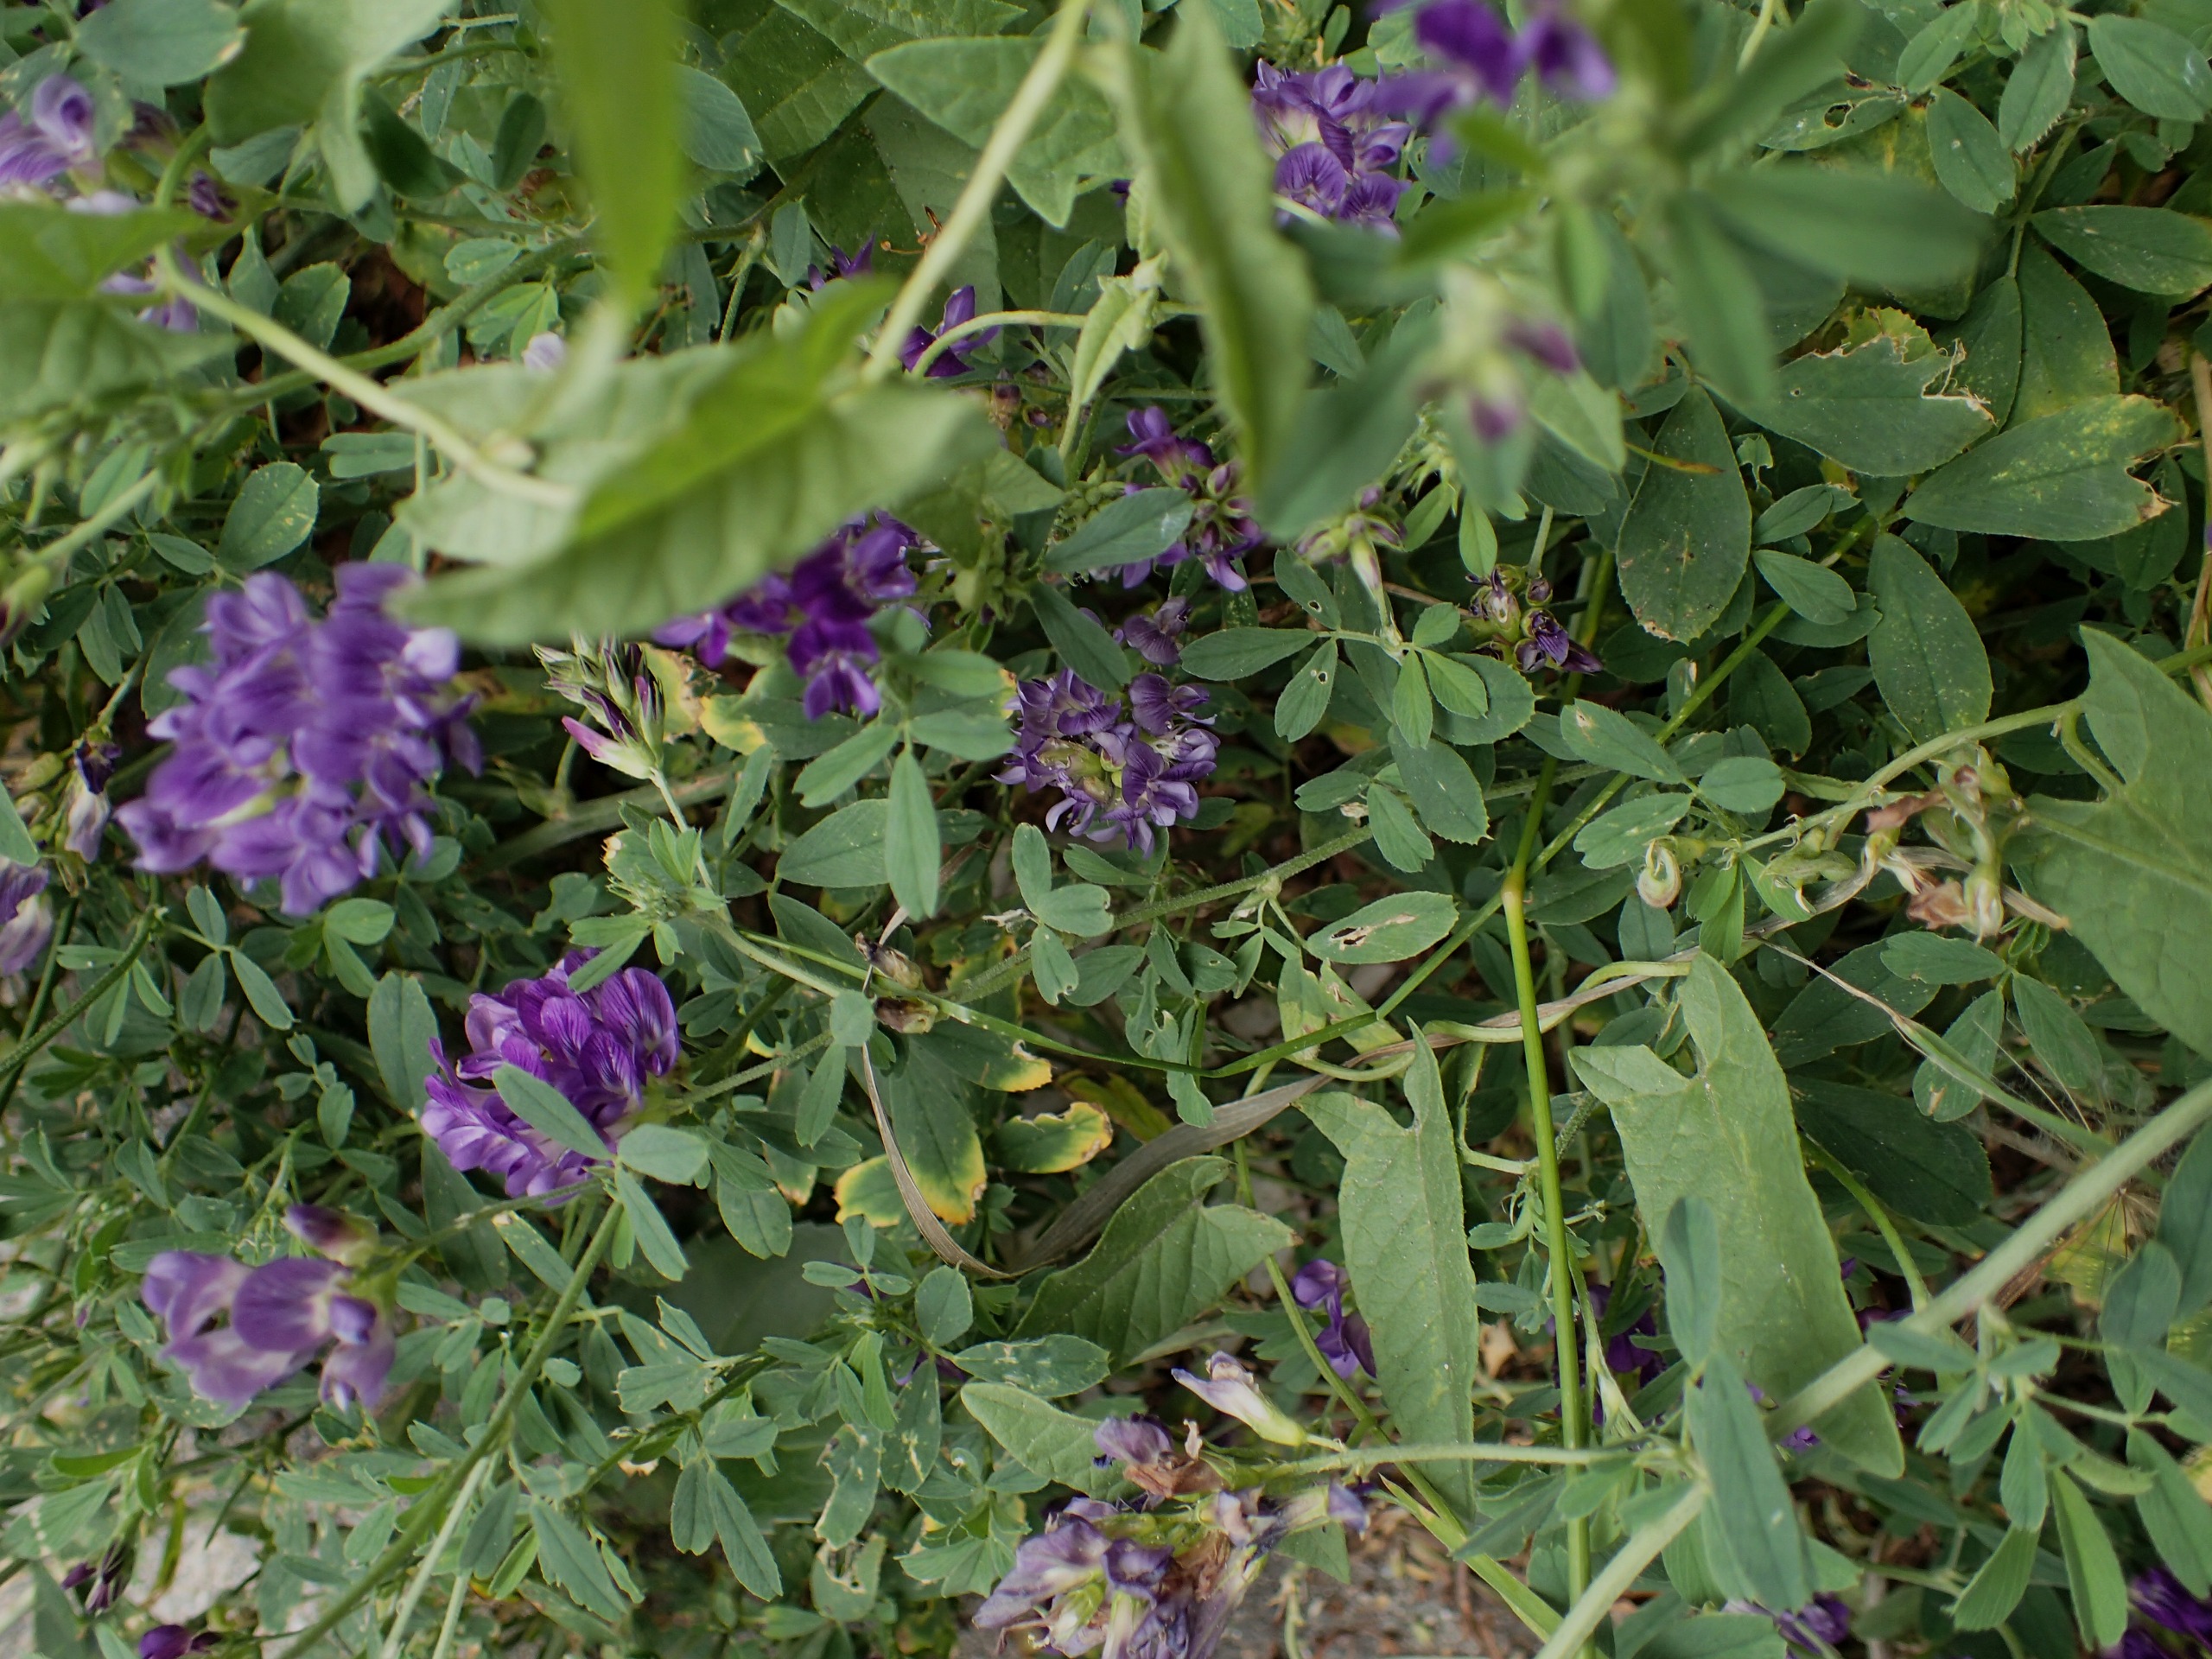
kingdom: Plantae
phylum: Tracheophyta
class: Magnoliopsida
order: Fabales
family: Fabaceae
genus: Medicago
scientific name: Medicago sativa
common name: Lucerne
